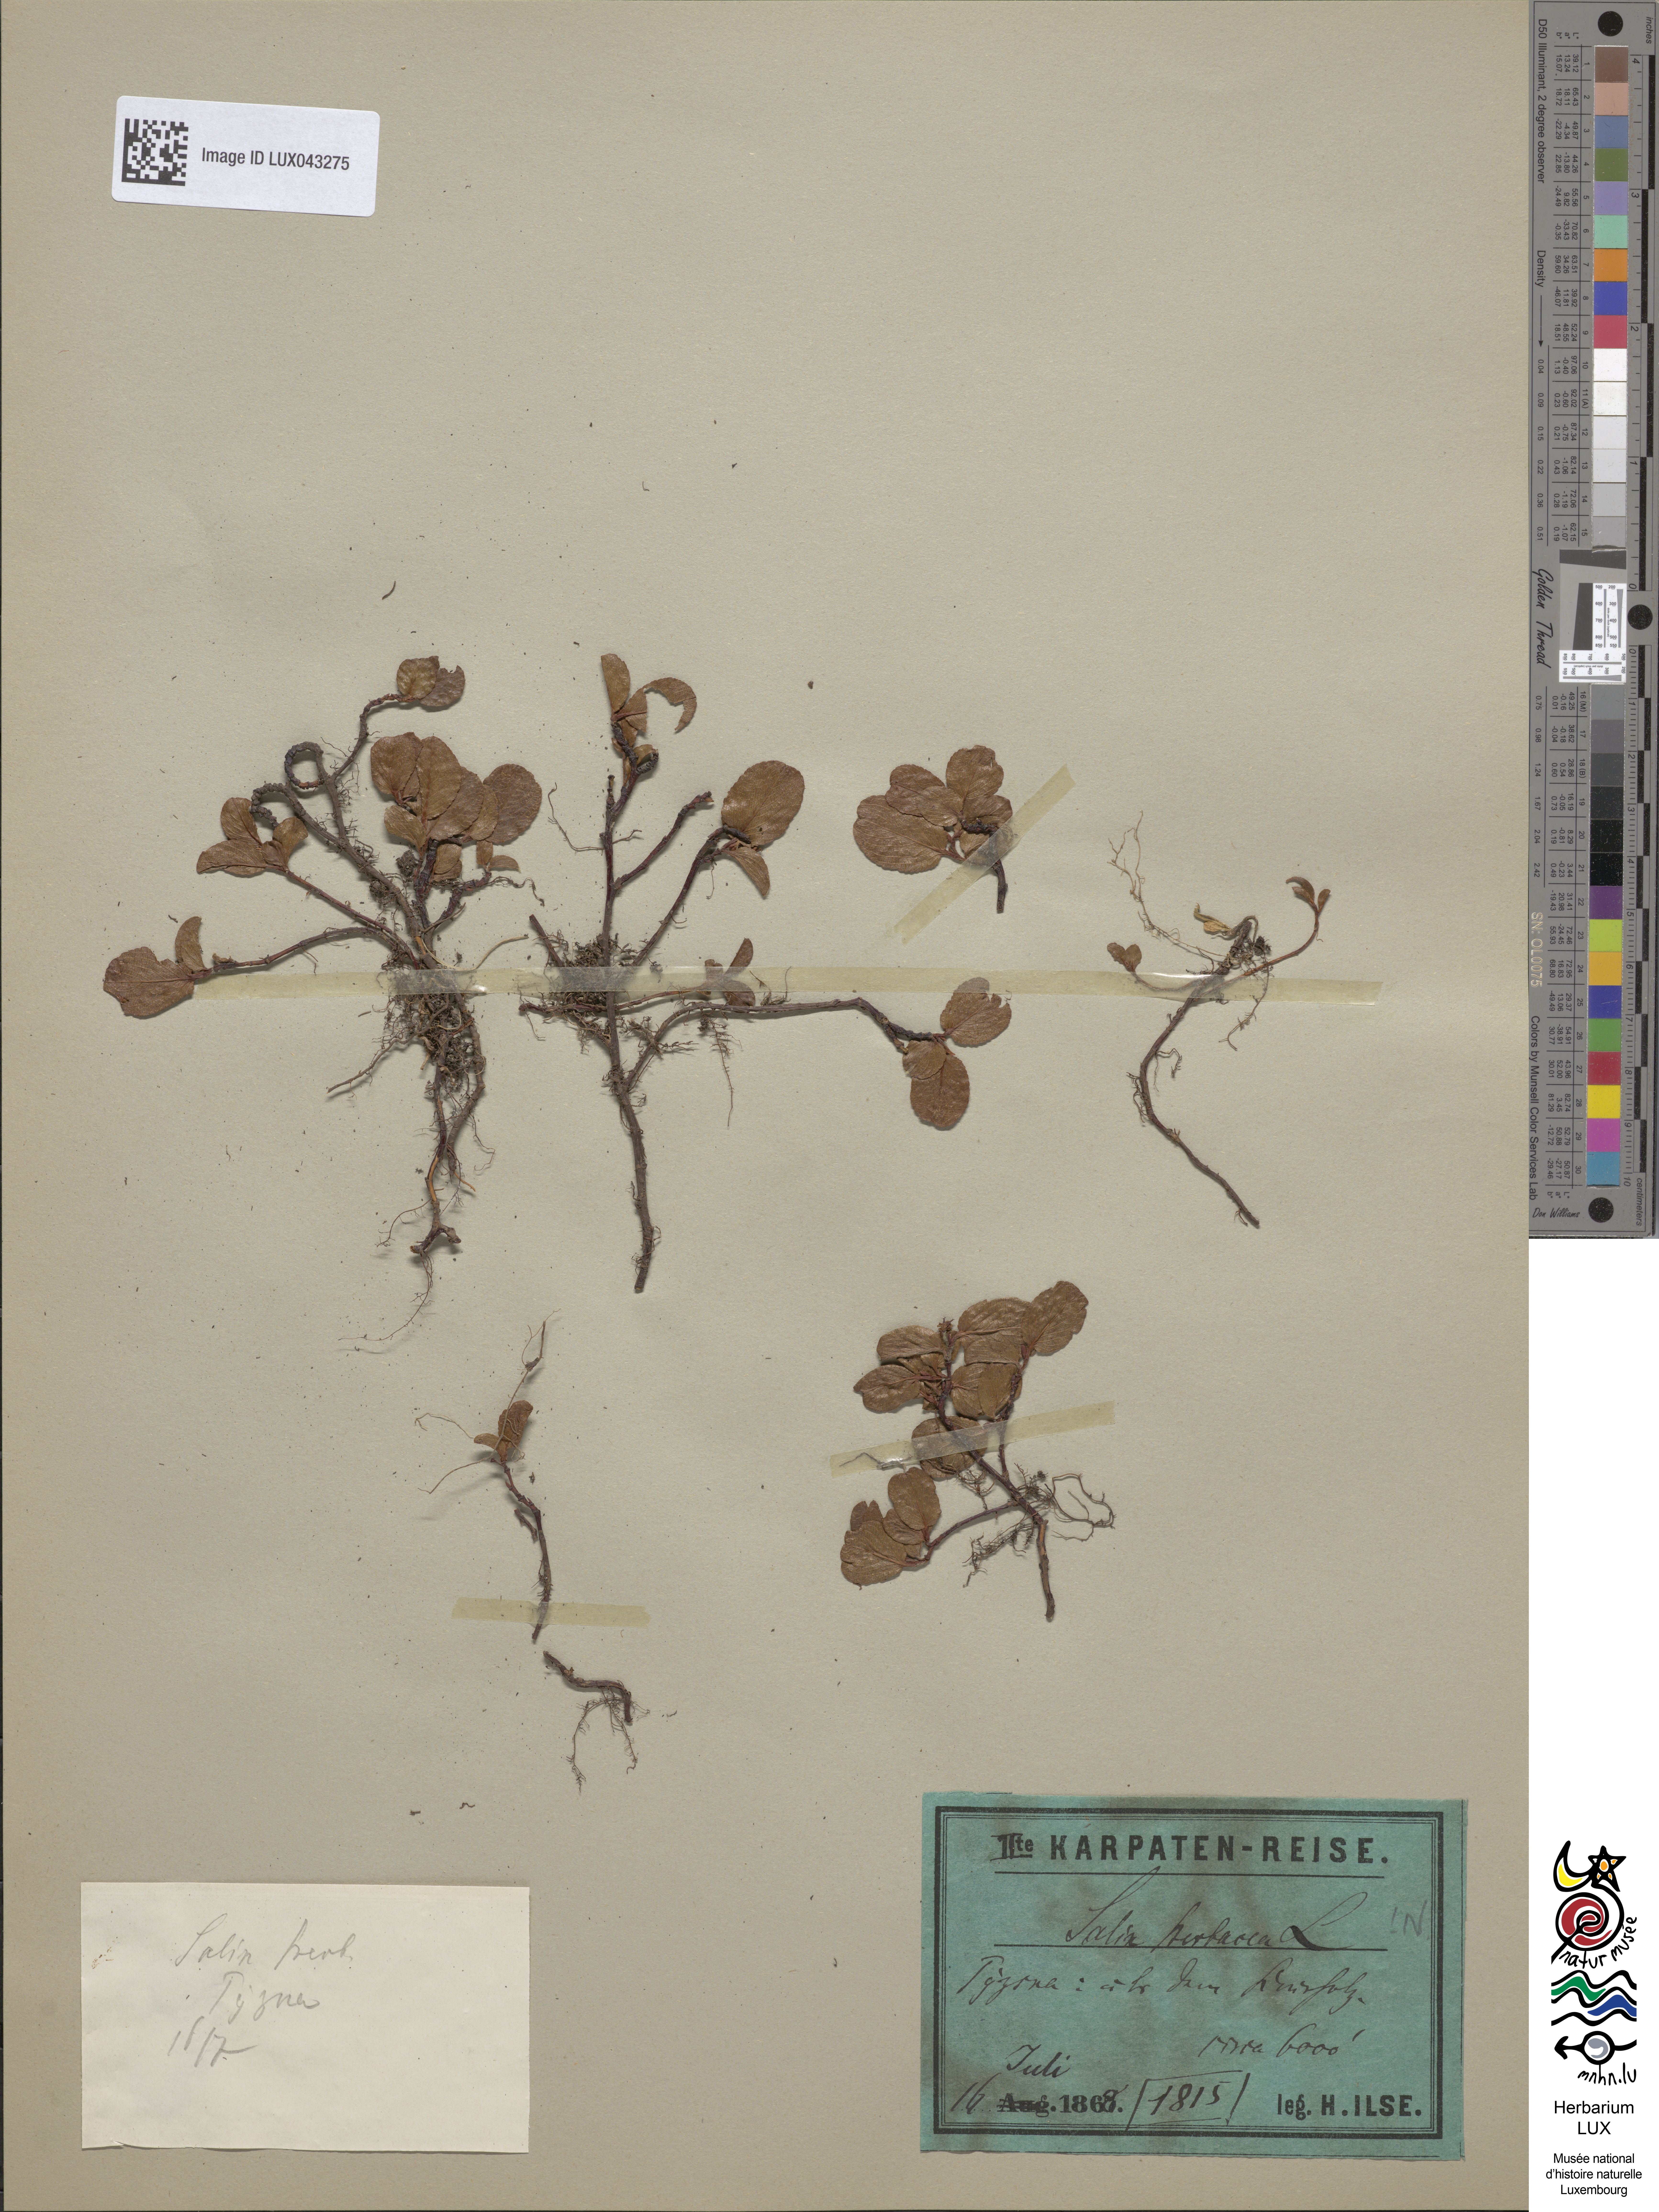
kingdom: Plantae
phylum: Tracheophyta
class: Magnoliopsida
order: Malpighiales
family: Salicaceae
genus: Salix
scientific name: Salix herbacea
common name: Dwarf willow
